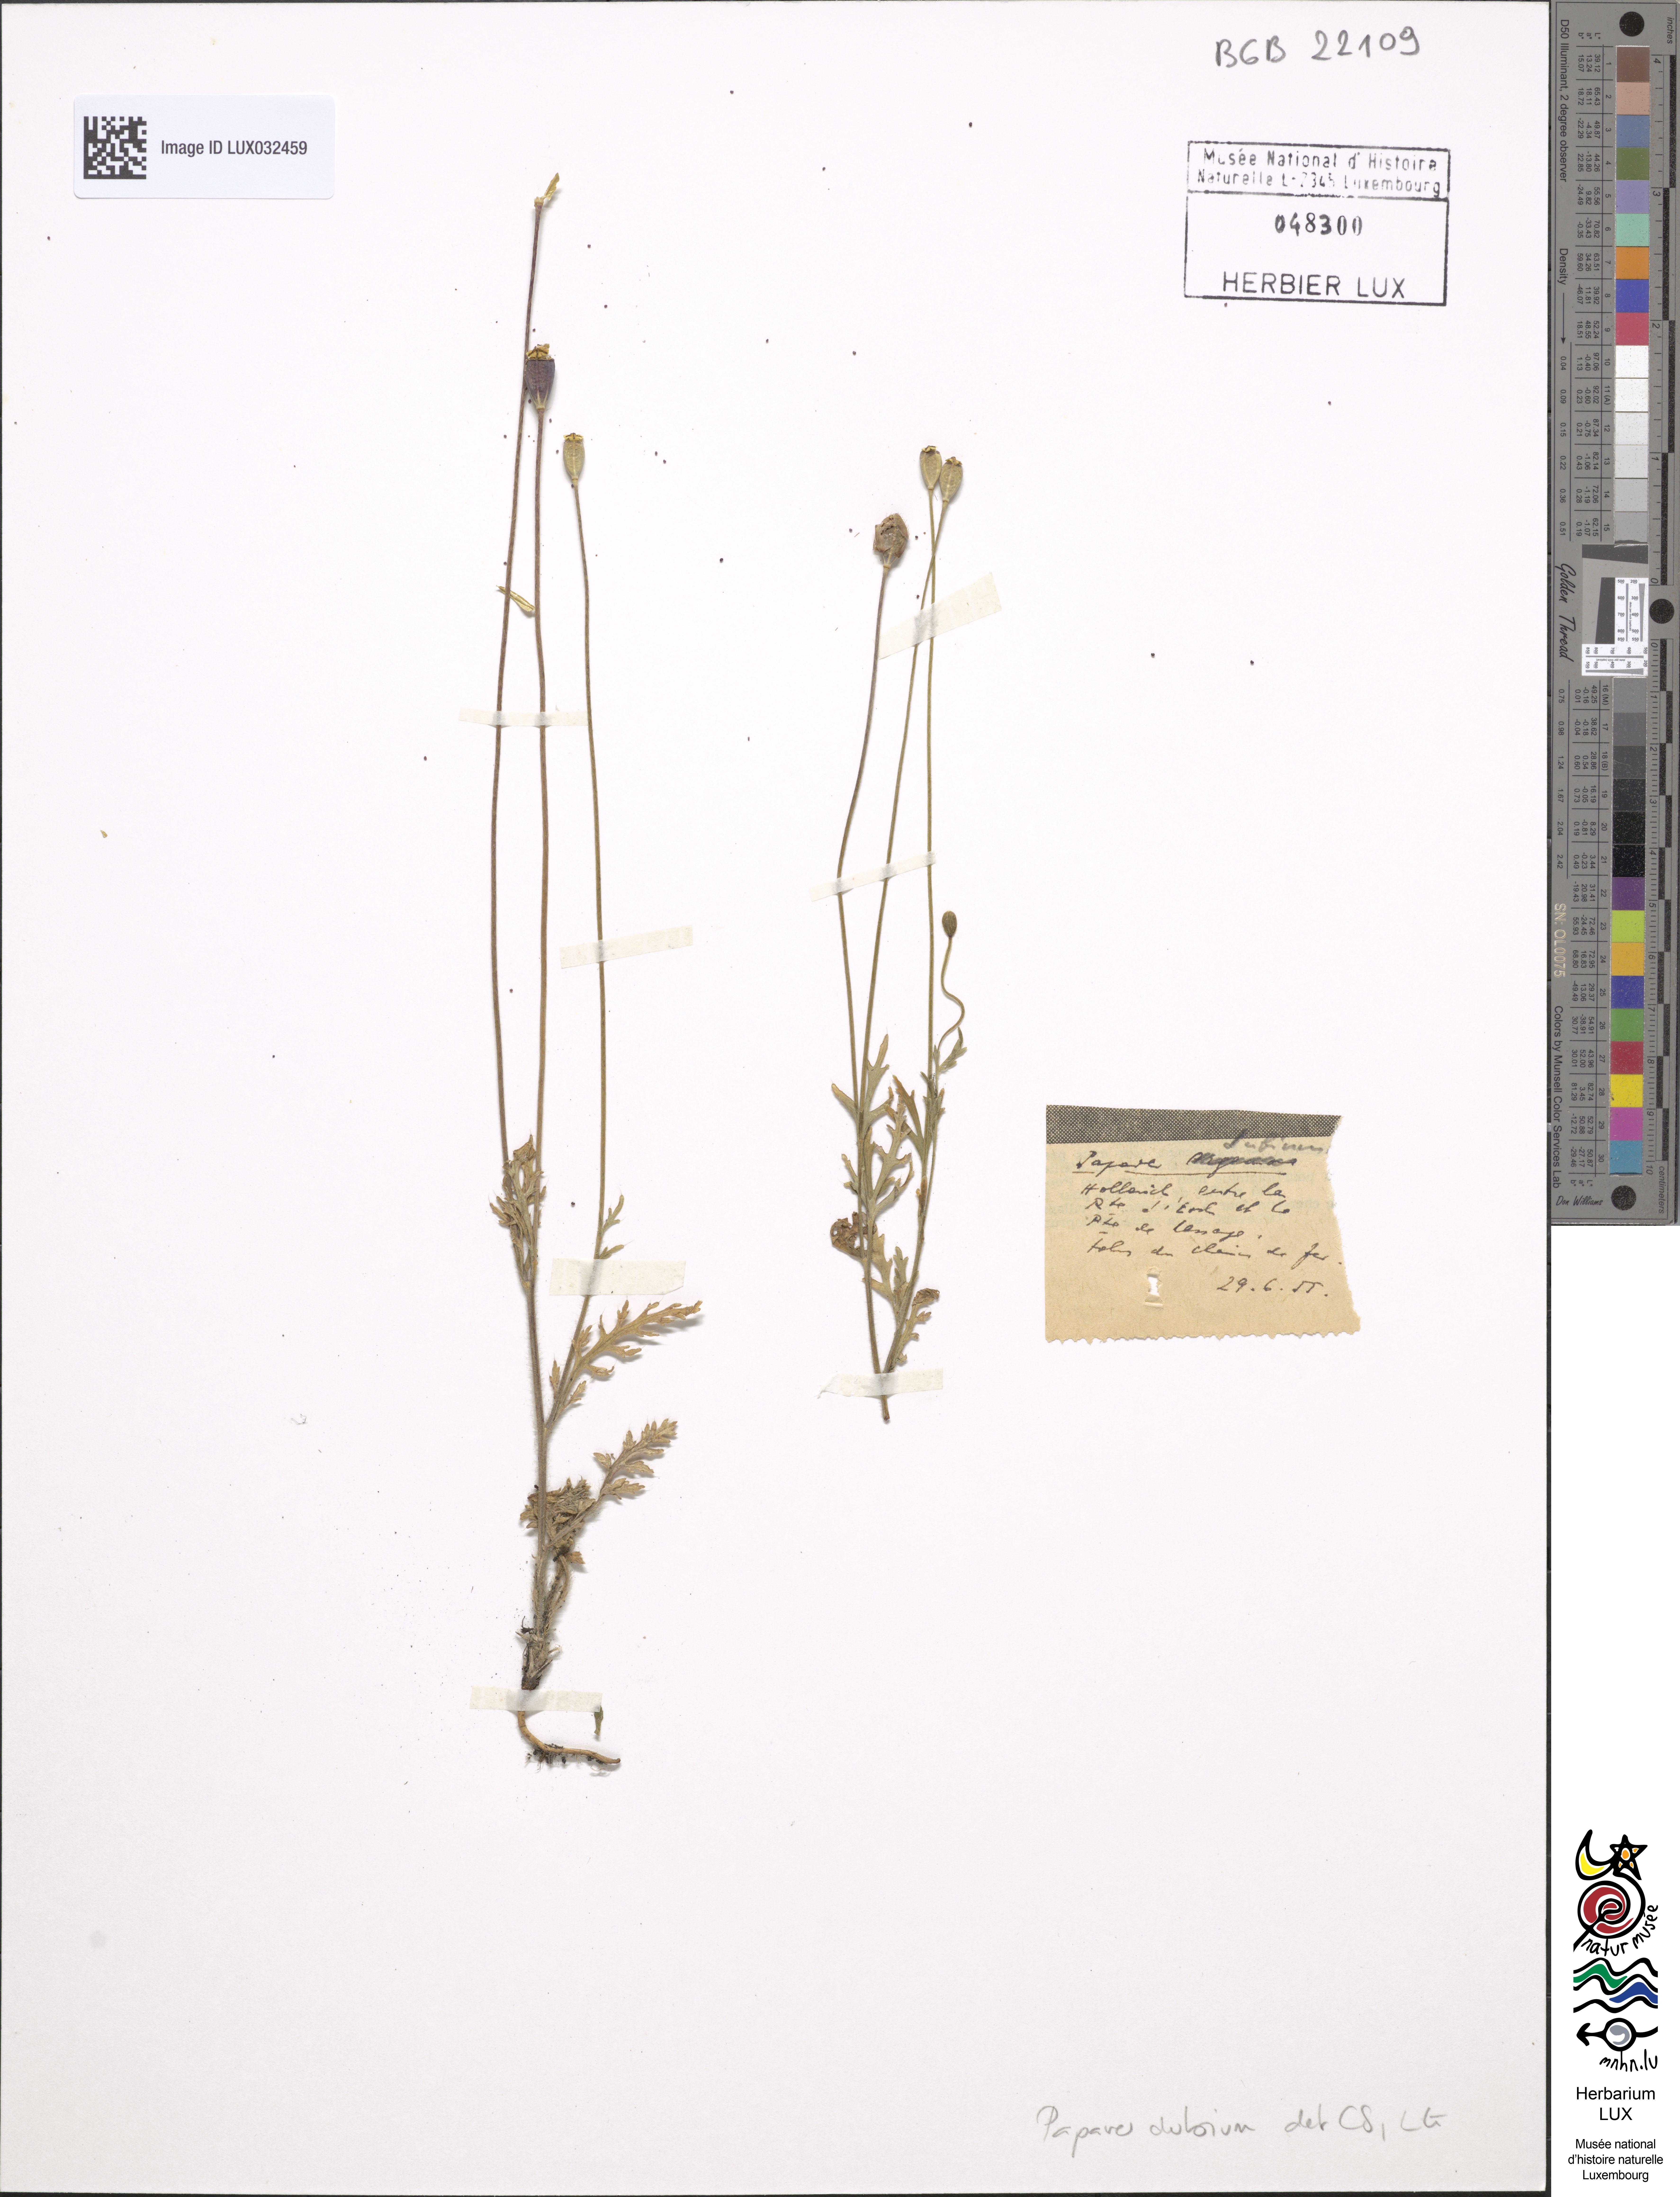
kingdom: Plantae
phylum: Tracheophyta
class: Magnoliopsida
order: Ranunculales
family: Papaveraceae
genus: Papaver
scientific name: Papaver dubium
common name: Long-headed poppy
